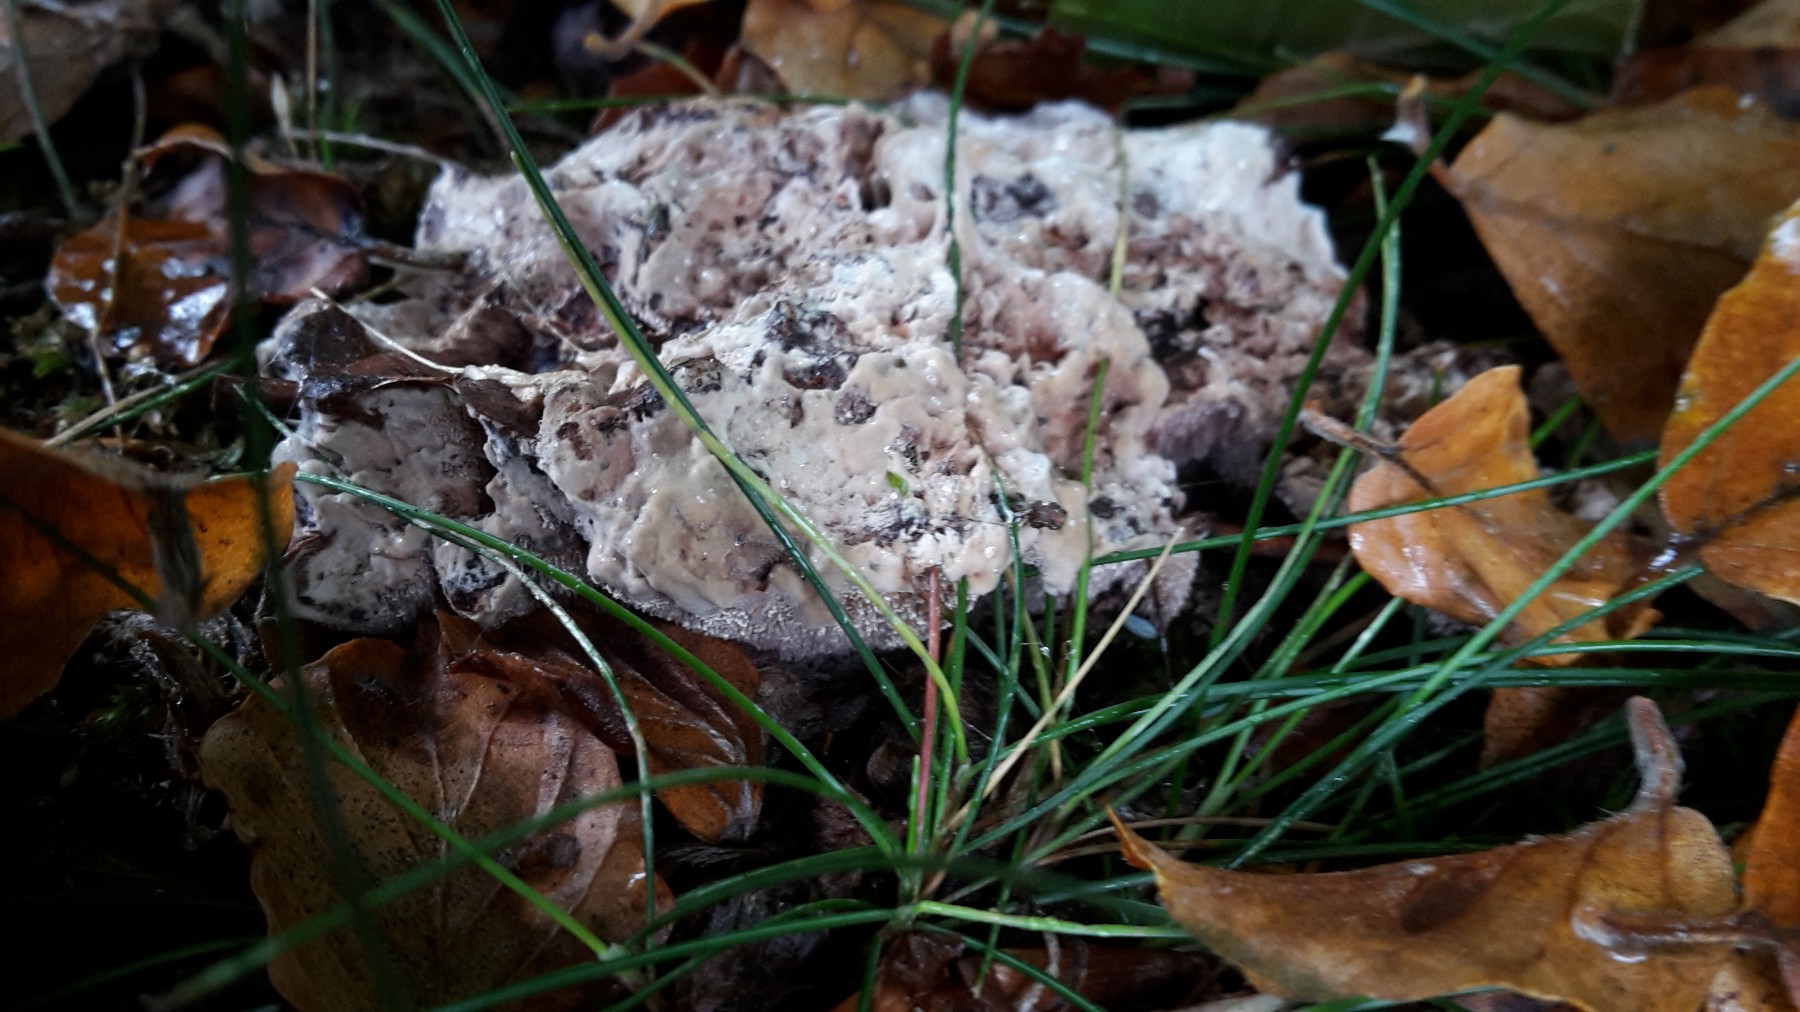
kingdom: Fungi
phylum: Basidiomycota
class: Agaricomycetes
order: Thelephorales
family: Bankeraceae
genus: Hydnellum
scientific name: Hydnellum cumulatum
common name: Rosette tooth
